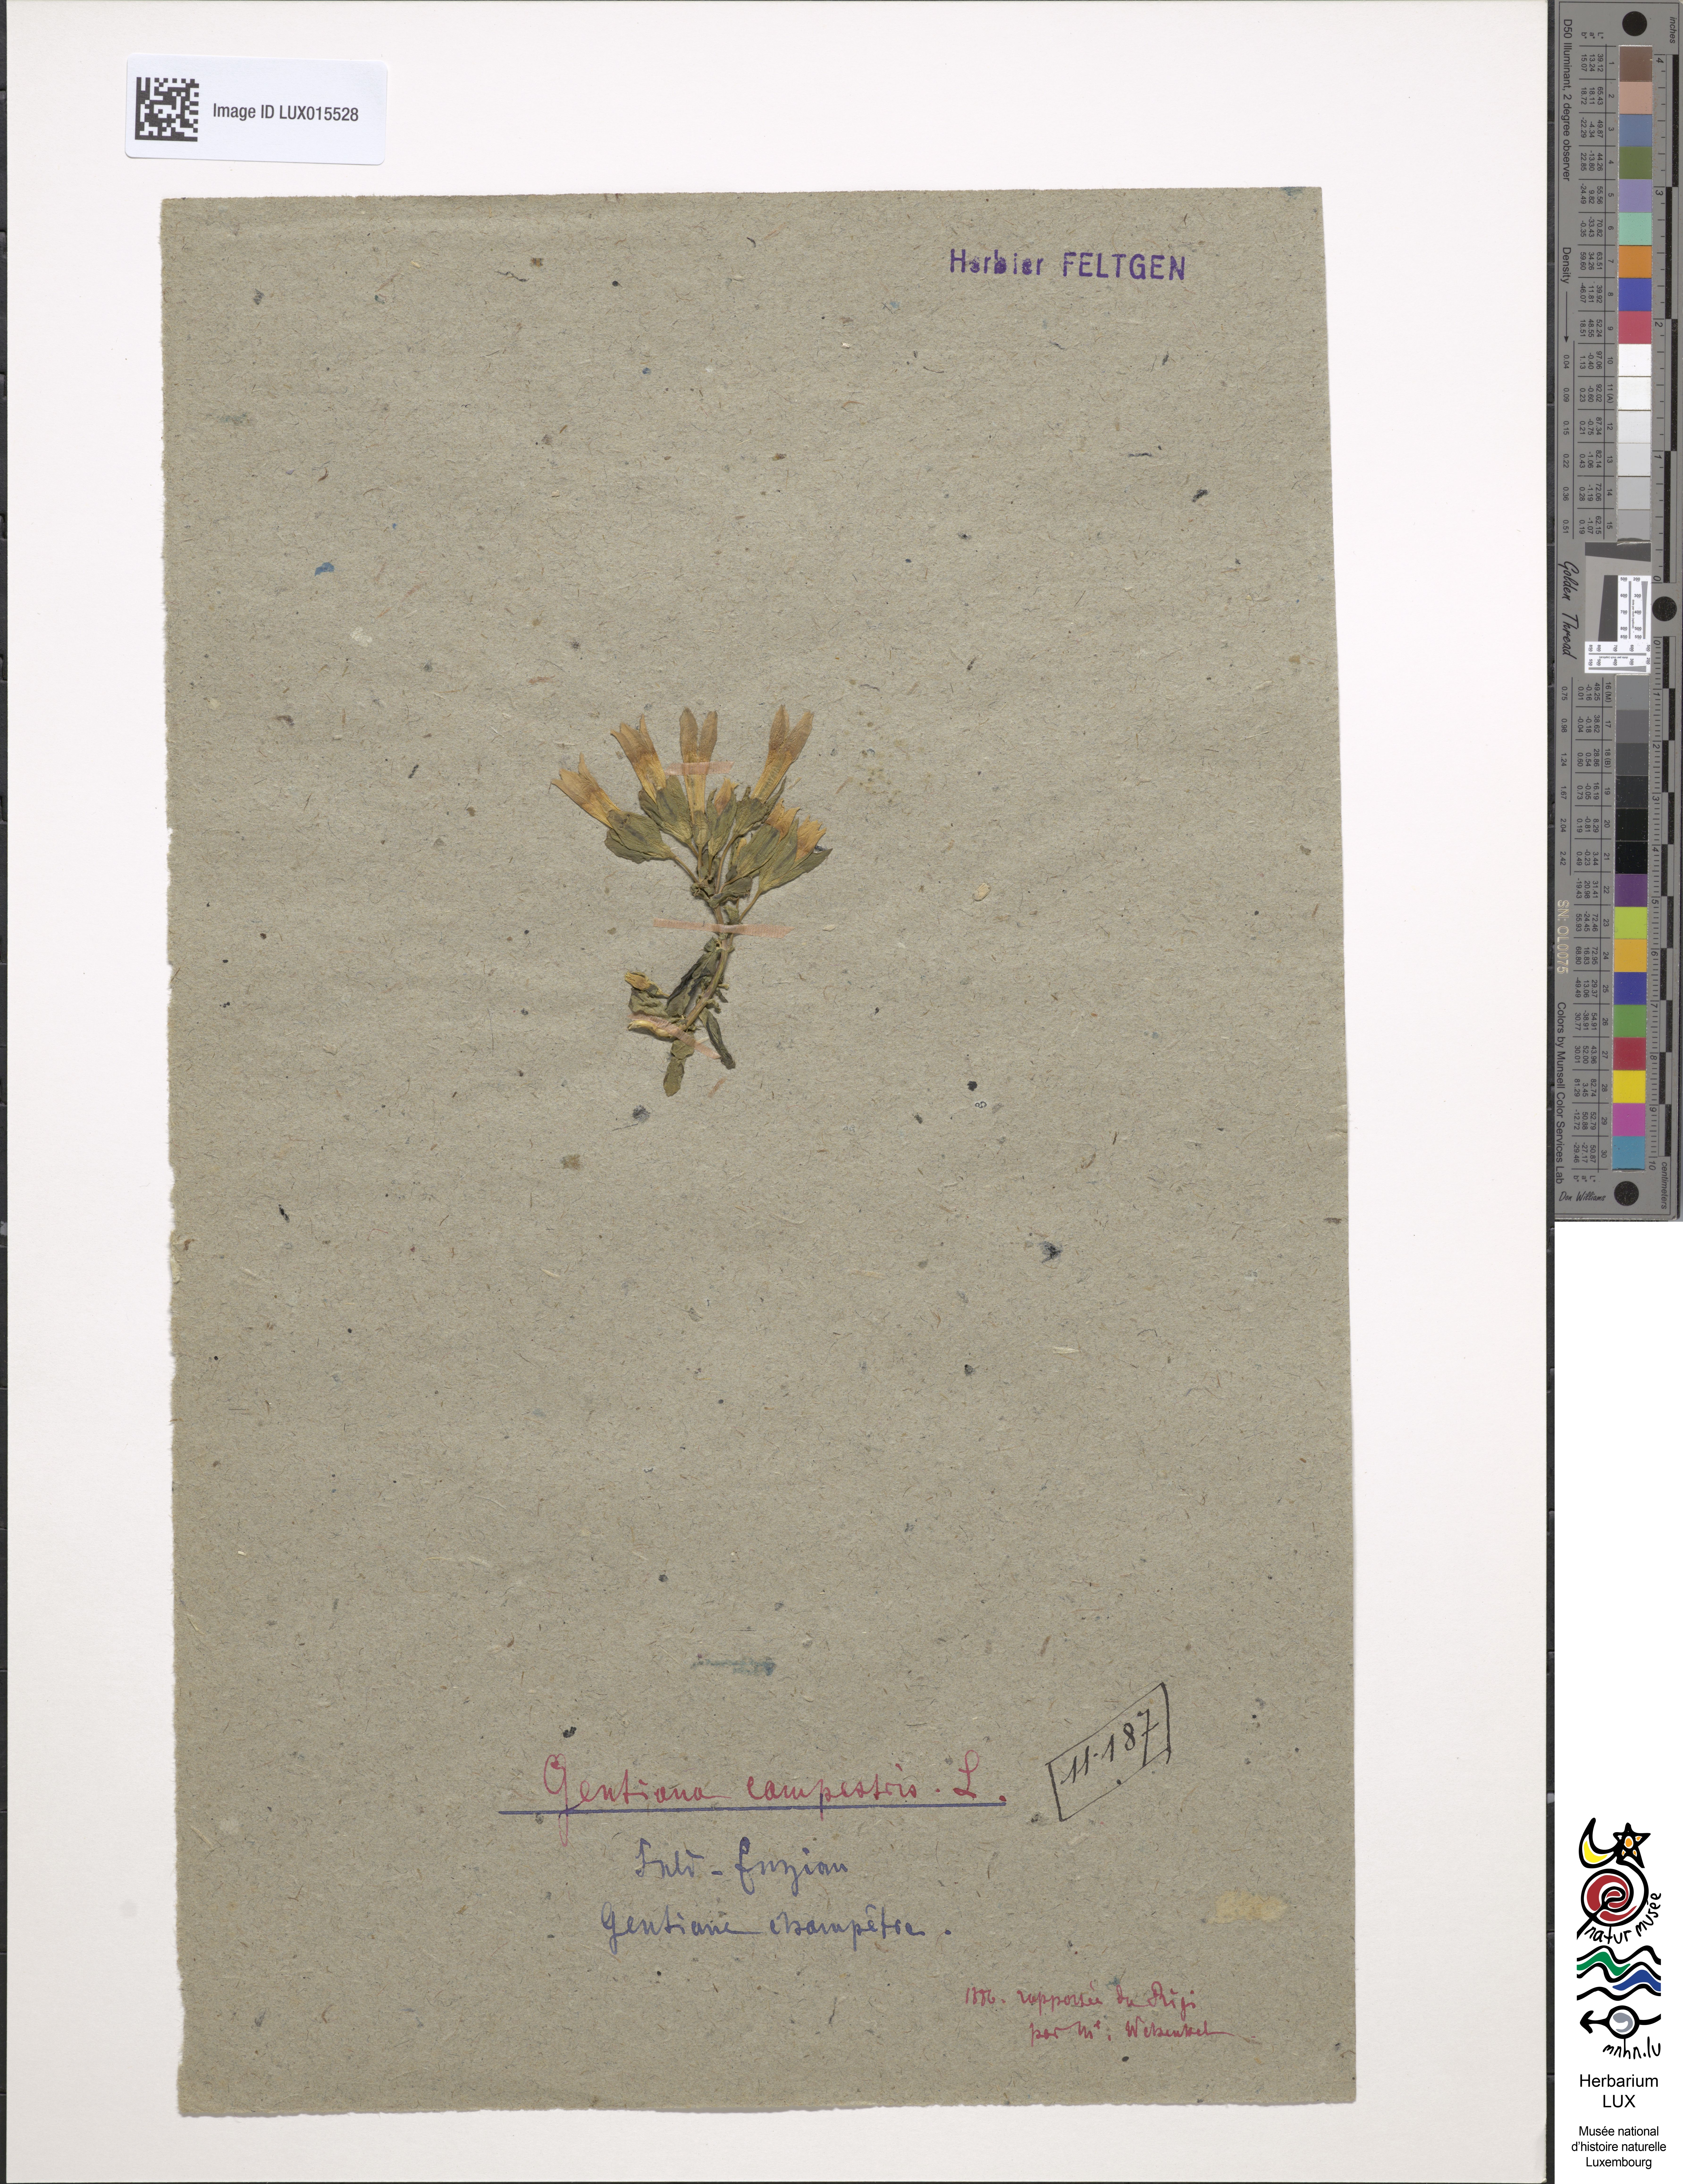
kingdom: Plantae
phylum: Tracheophyta
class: Magnoliopsida
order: Gentianales
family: Gentianaceae
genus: Gentianella
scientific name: Gentianella campestris
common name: Field gentian
